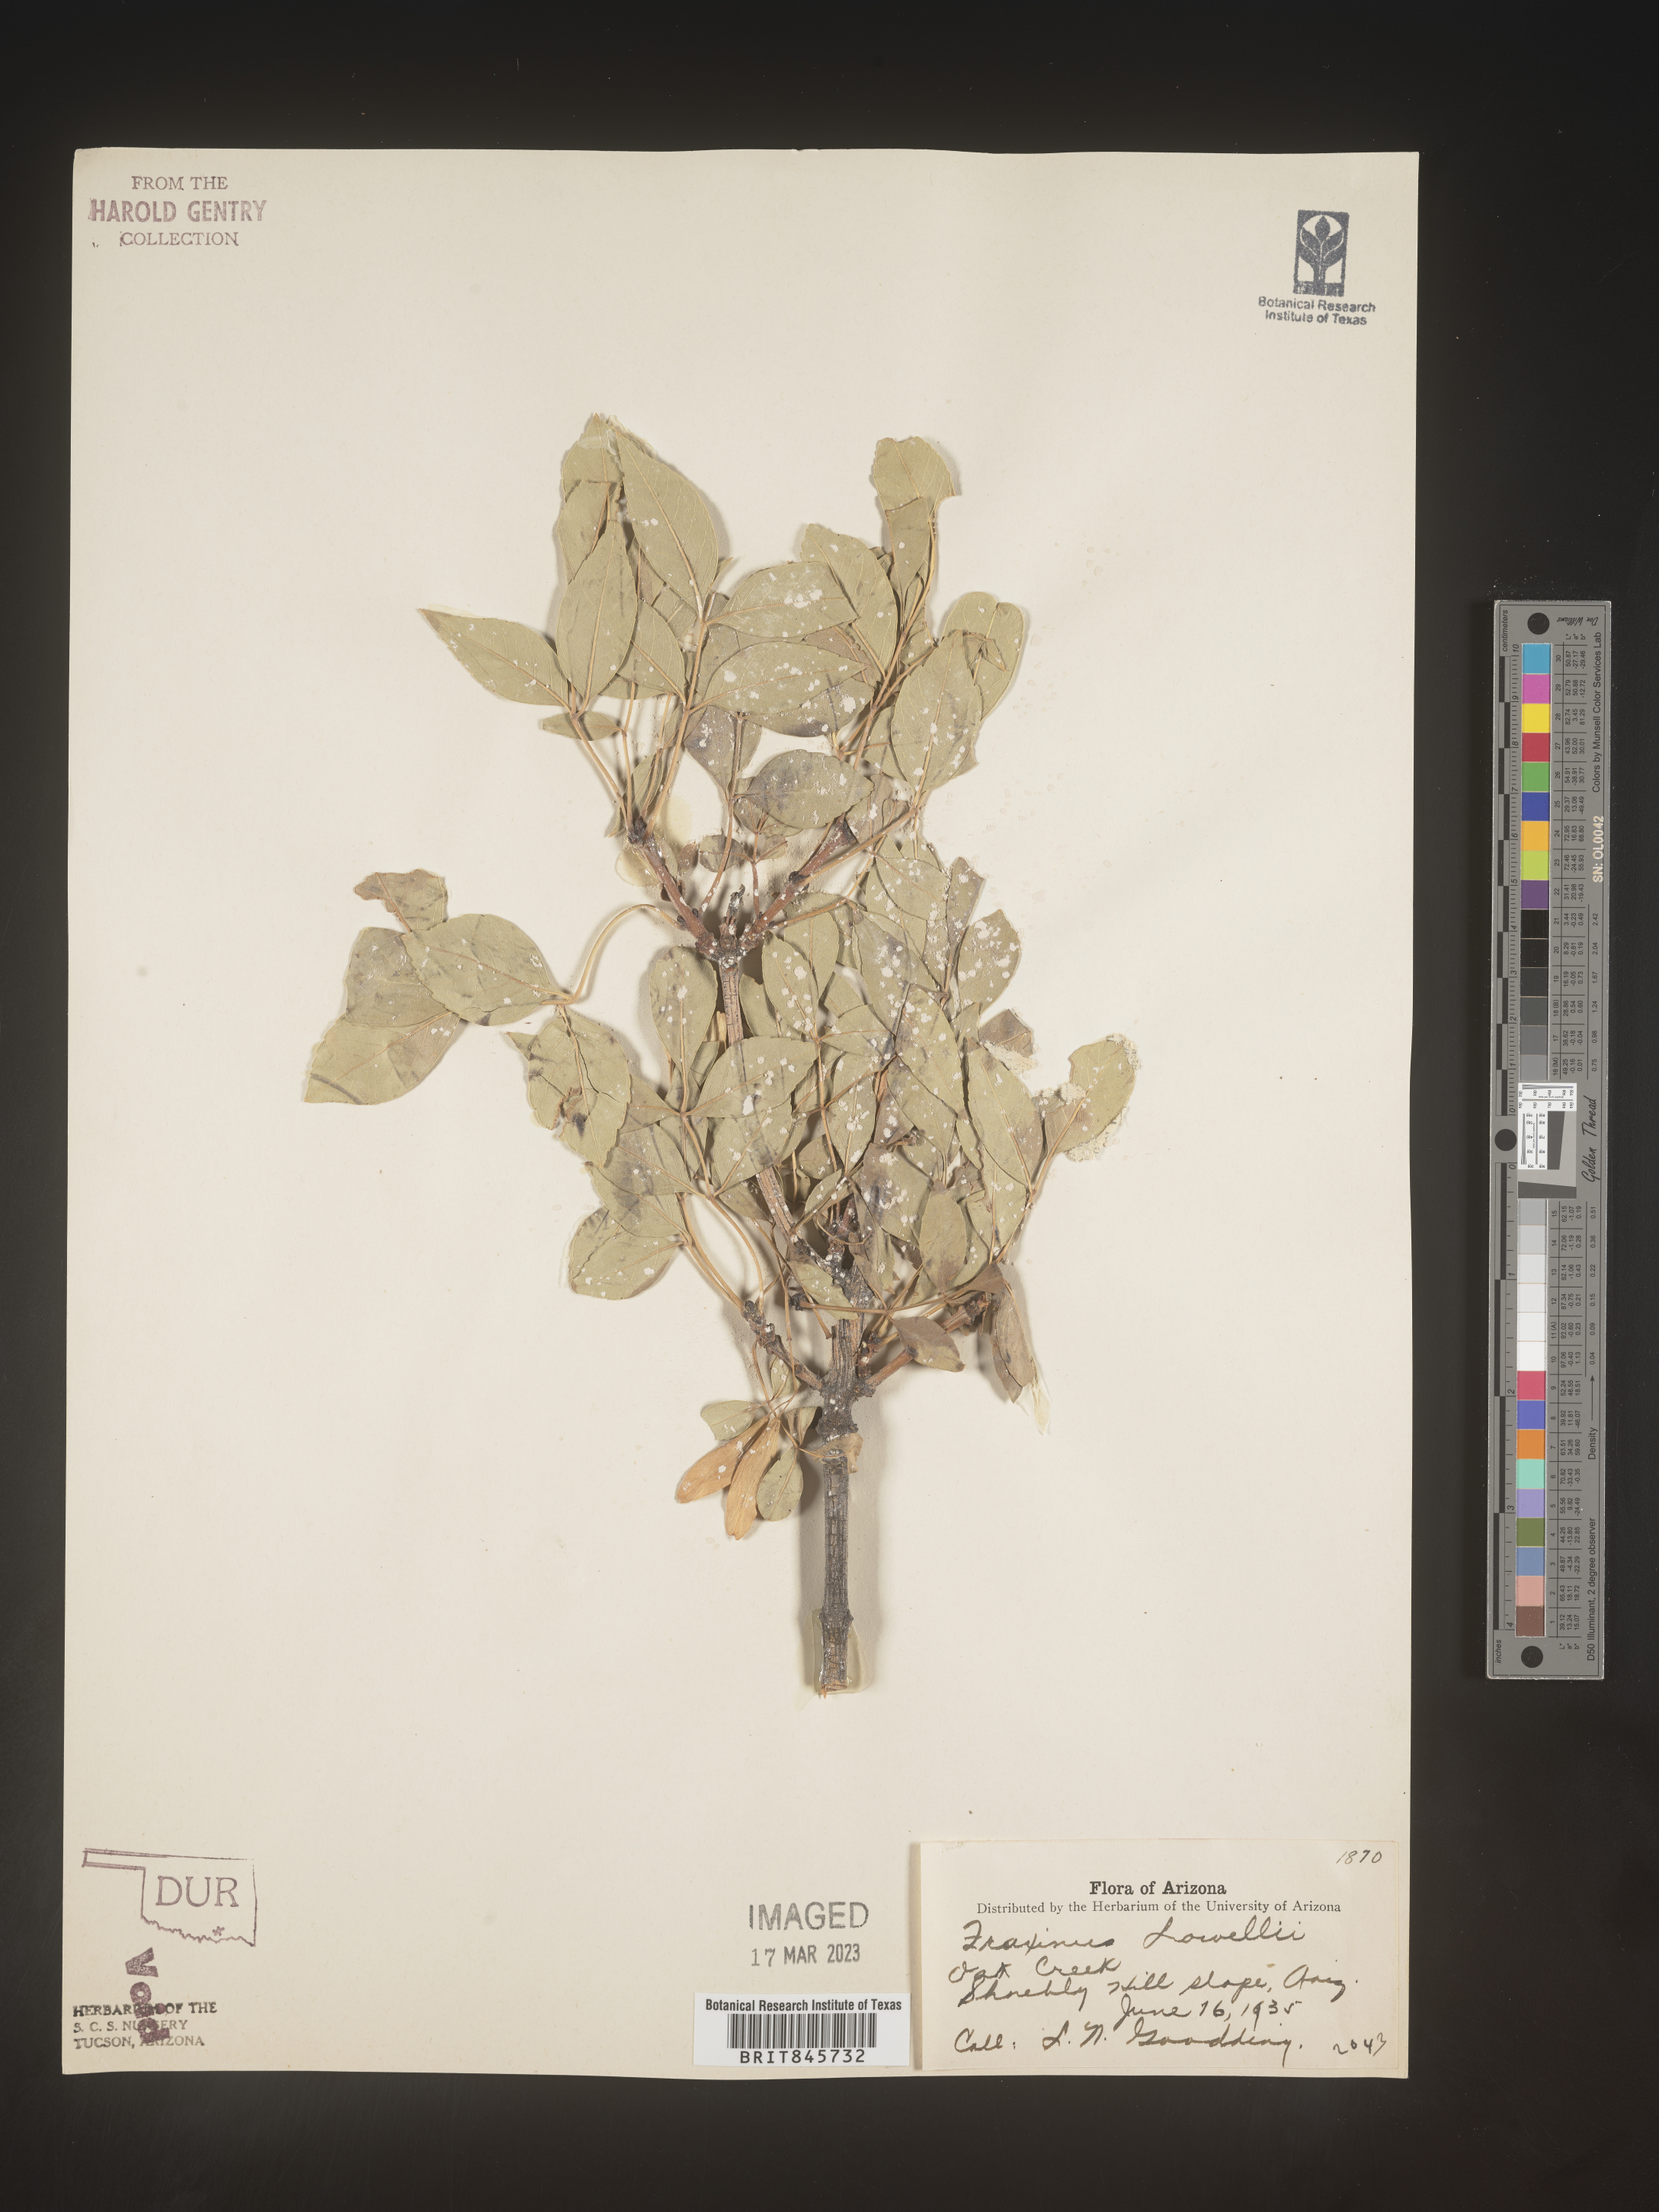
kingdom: Plantae
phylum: Tracheophyta
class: Magnoliopsida
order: Lamiales
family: Oleaceae
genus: Fraxinus
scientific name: Fraxinus anomala
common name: Utah ash
